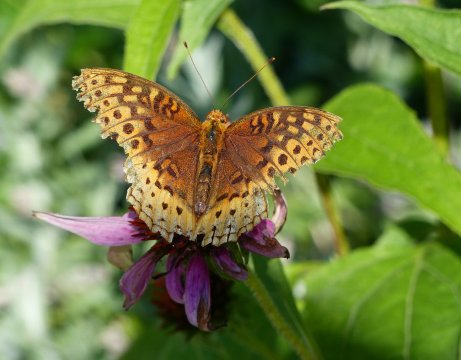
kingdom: Animalia
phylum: Arthropoda
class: Insecta
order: Lepidoptera
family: Nymphalidae
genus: Speyeria
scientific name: Speyeria cybele
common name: Great Spangled Fritillary
